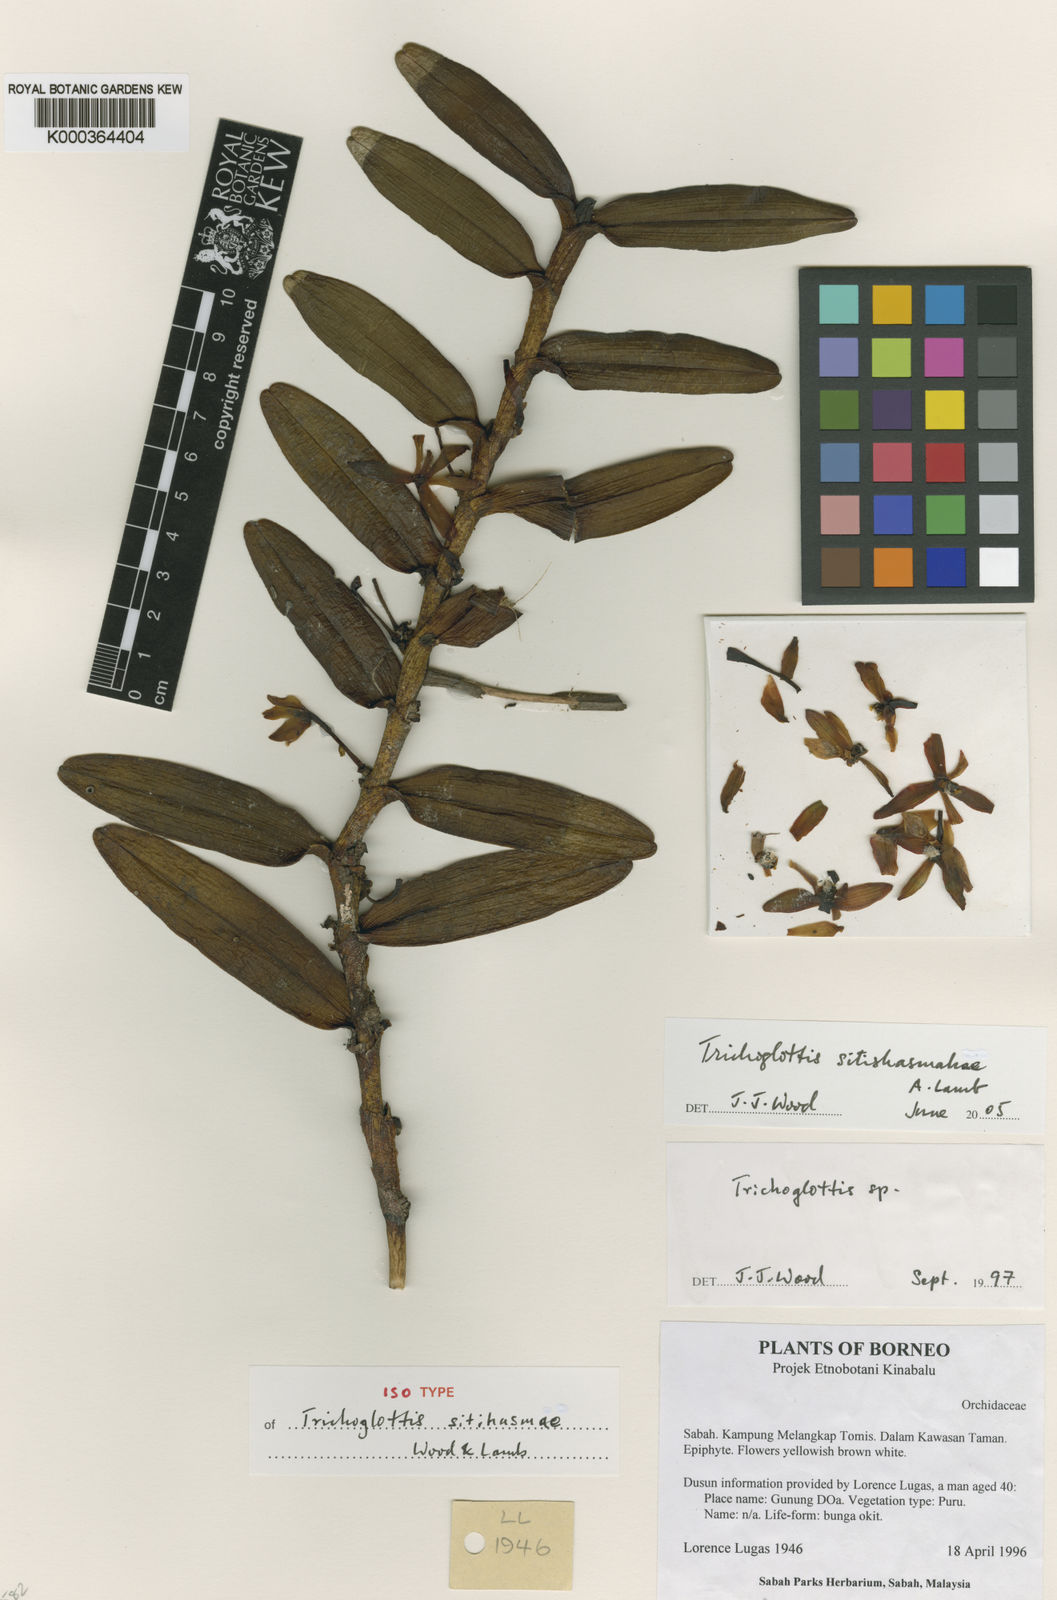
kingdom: Plantae
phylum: Tracheophyta
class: Liliopsida
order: Asparagales
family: Orchidaceae
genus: Trichoglottis
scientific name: Trichoglottis
